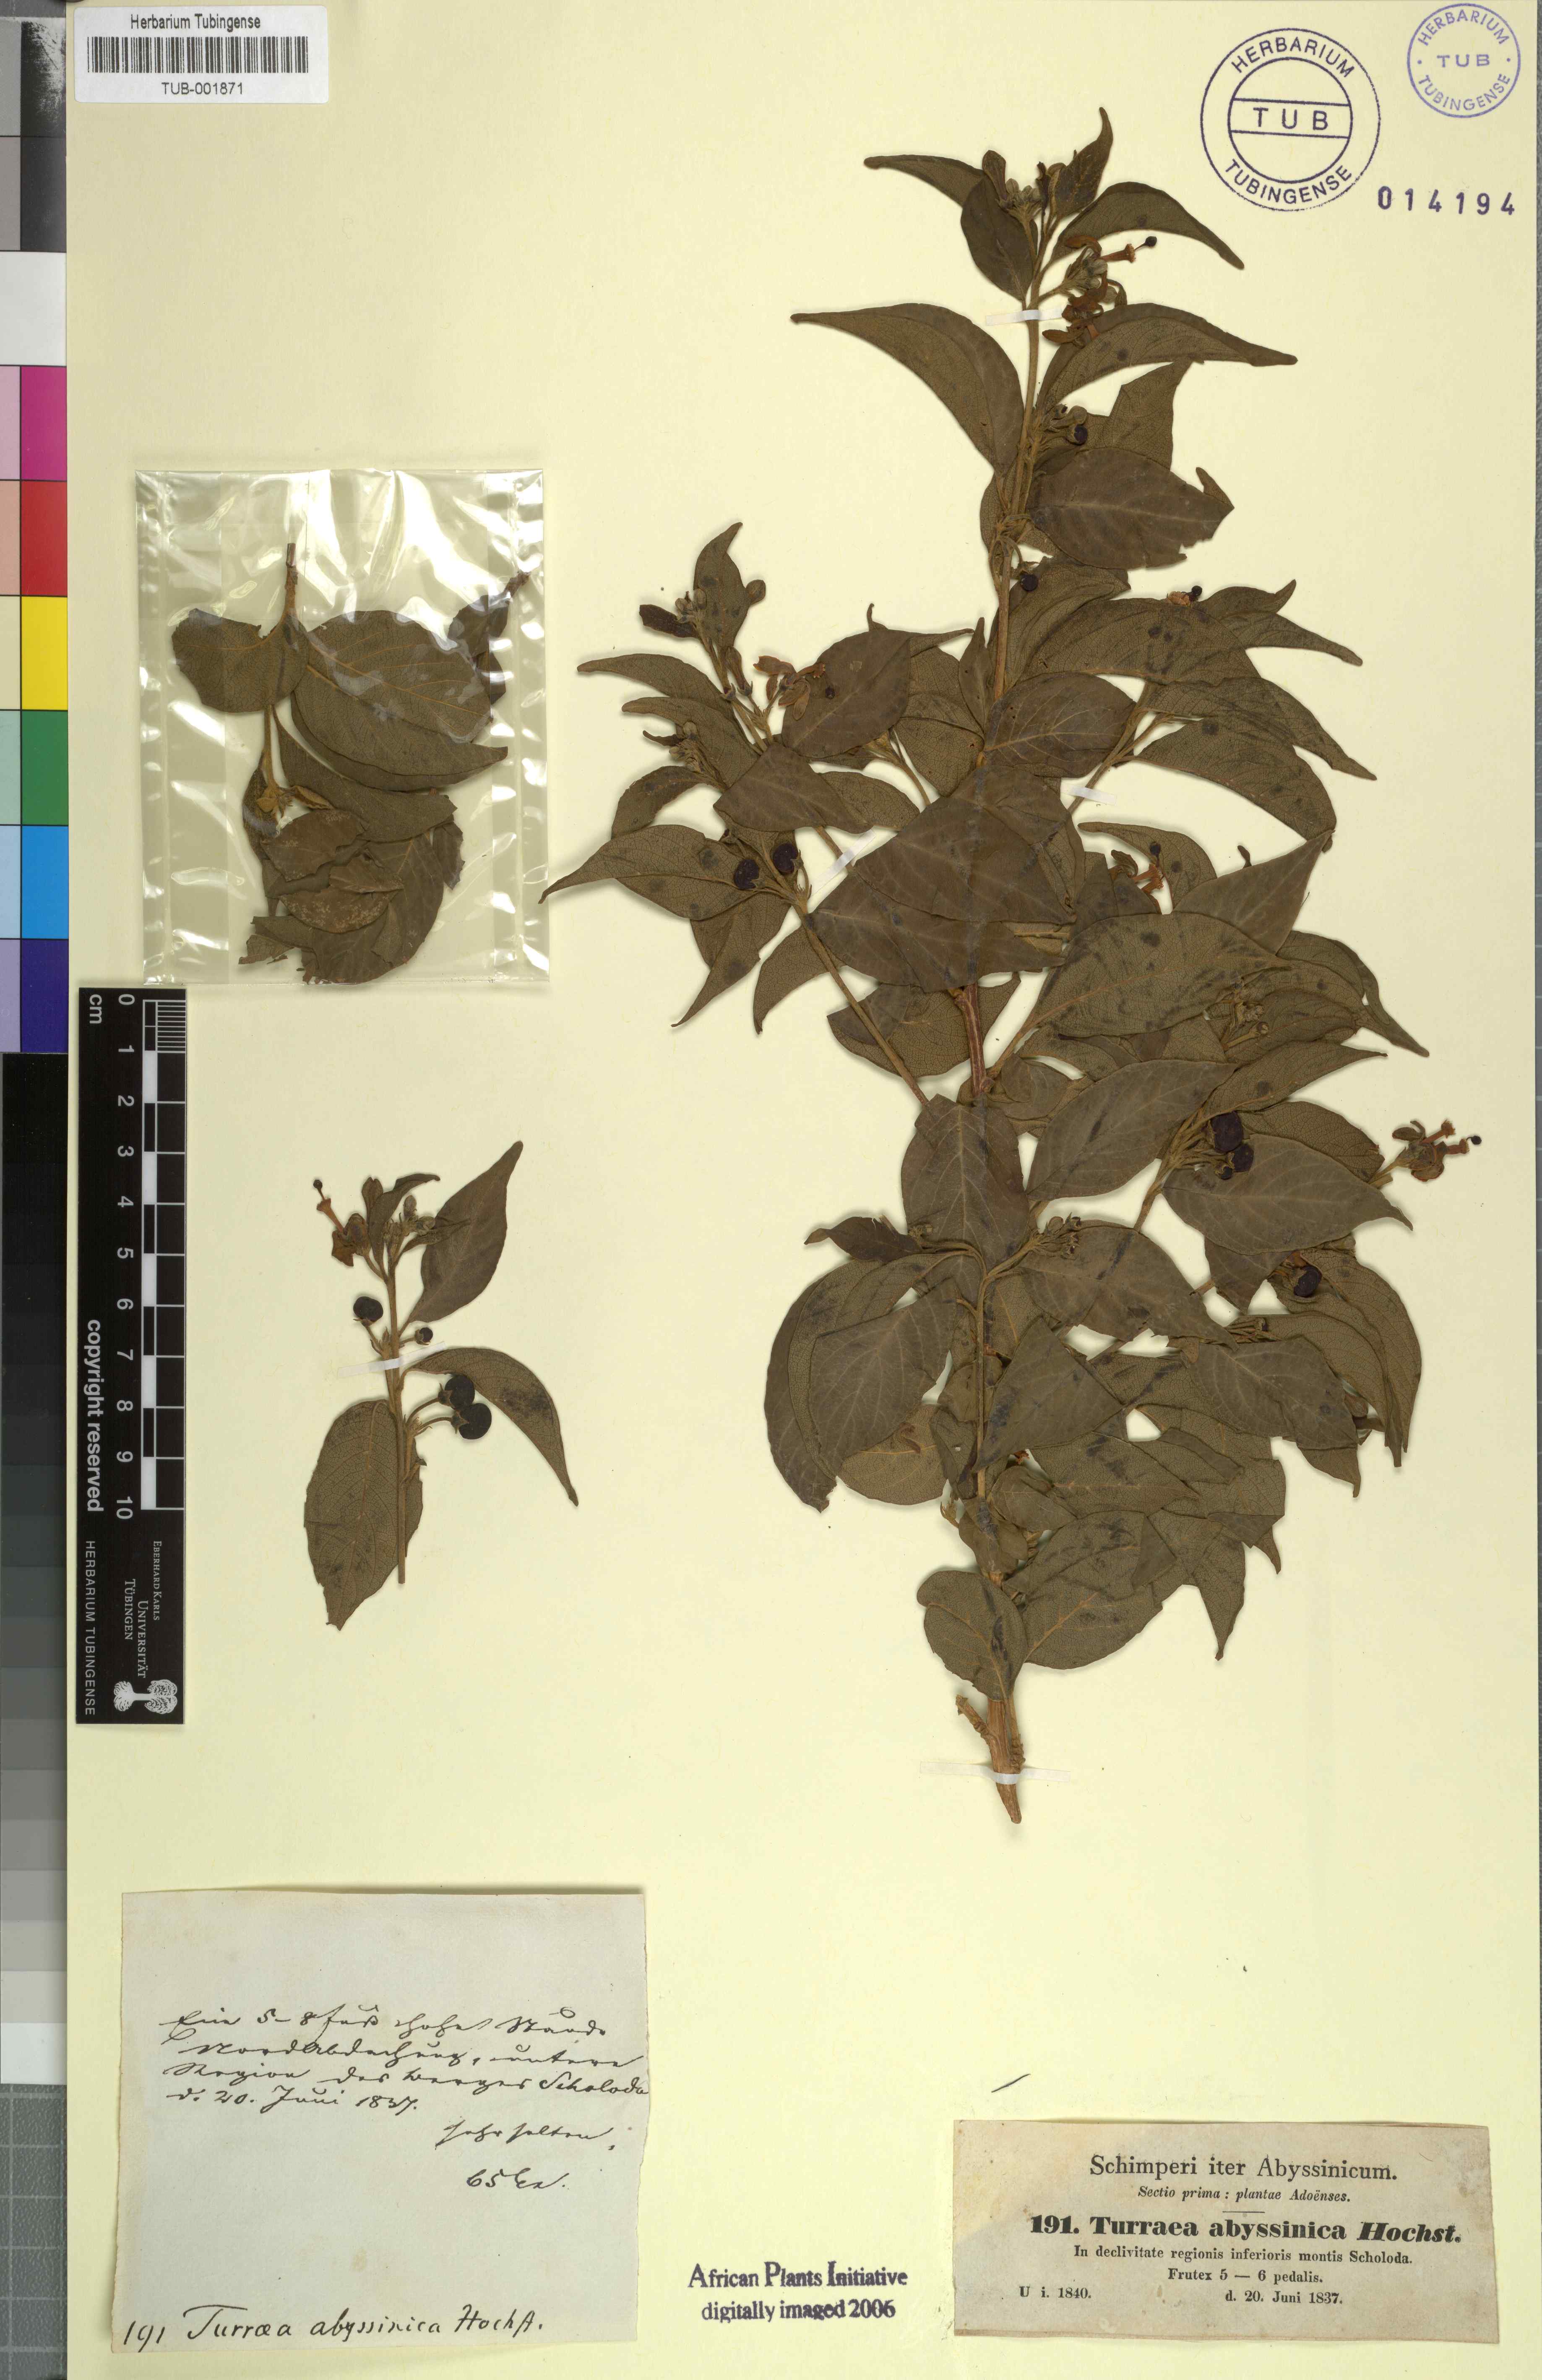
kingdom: Plantae
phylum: Tracheophyta
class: Magnoliopsida
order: Sapindales
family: Meliaceae
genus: Turraea
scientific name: Turraea abyssinica
